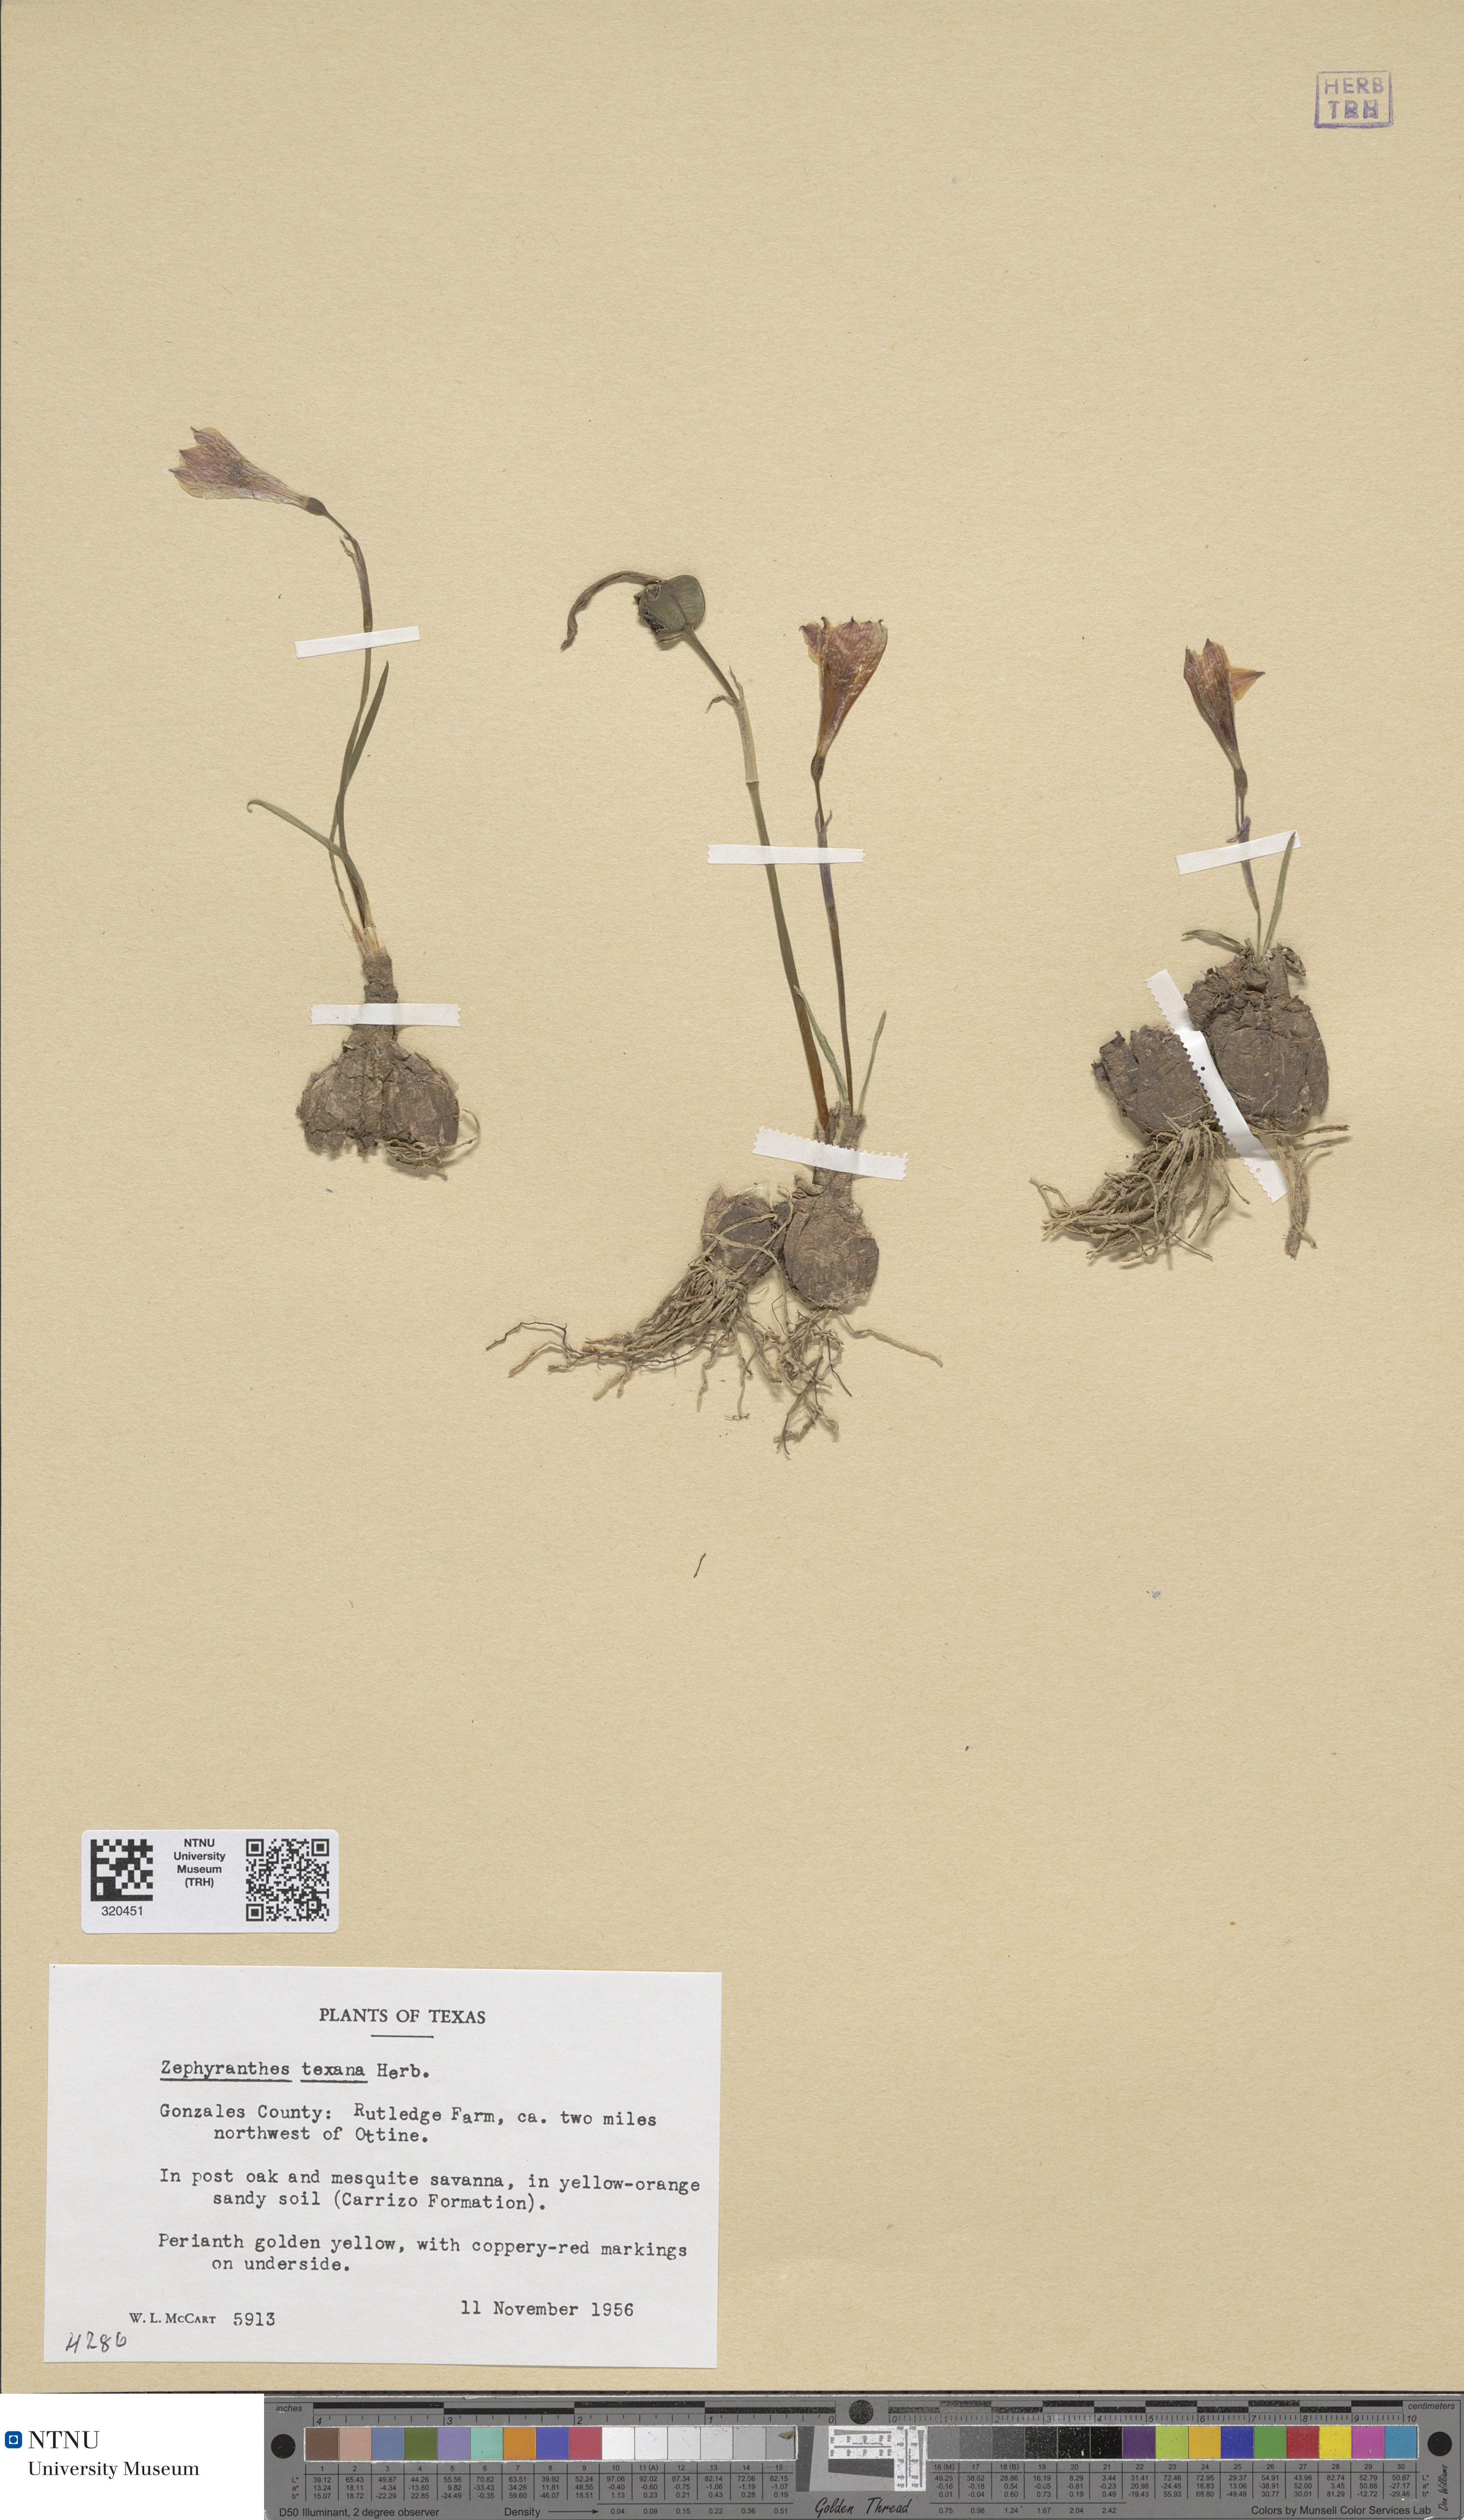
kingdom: Plantae
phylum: Tracheophyta
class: Liliopsida
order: Asparagales
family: Amaryllidaceae
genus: Zephyranthes
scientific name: Zephyranthes tubispatha
